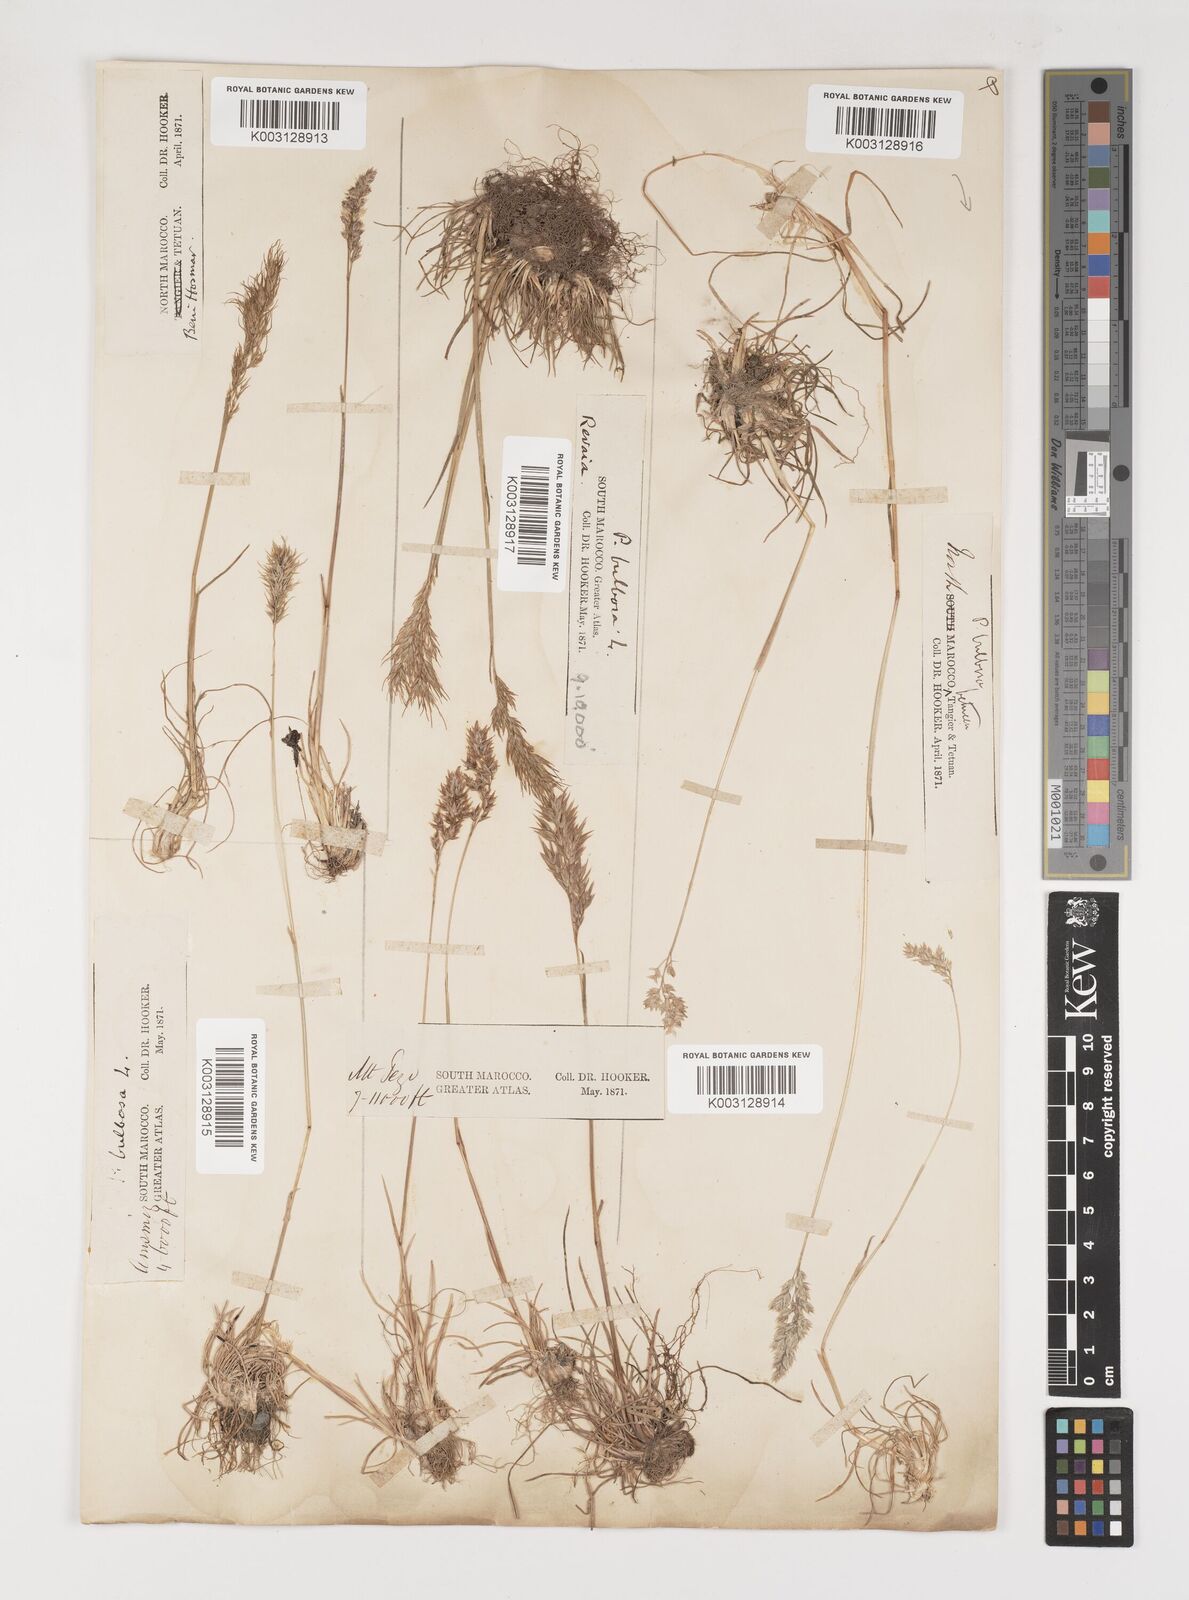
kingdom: Plantae
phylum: Tracheophyta
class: Liliopsida
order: Poales
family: Poaceae
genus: Poa
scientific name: Poa bulbosa
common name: Bulbous bluegrass
